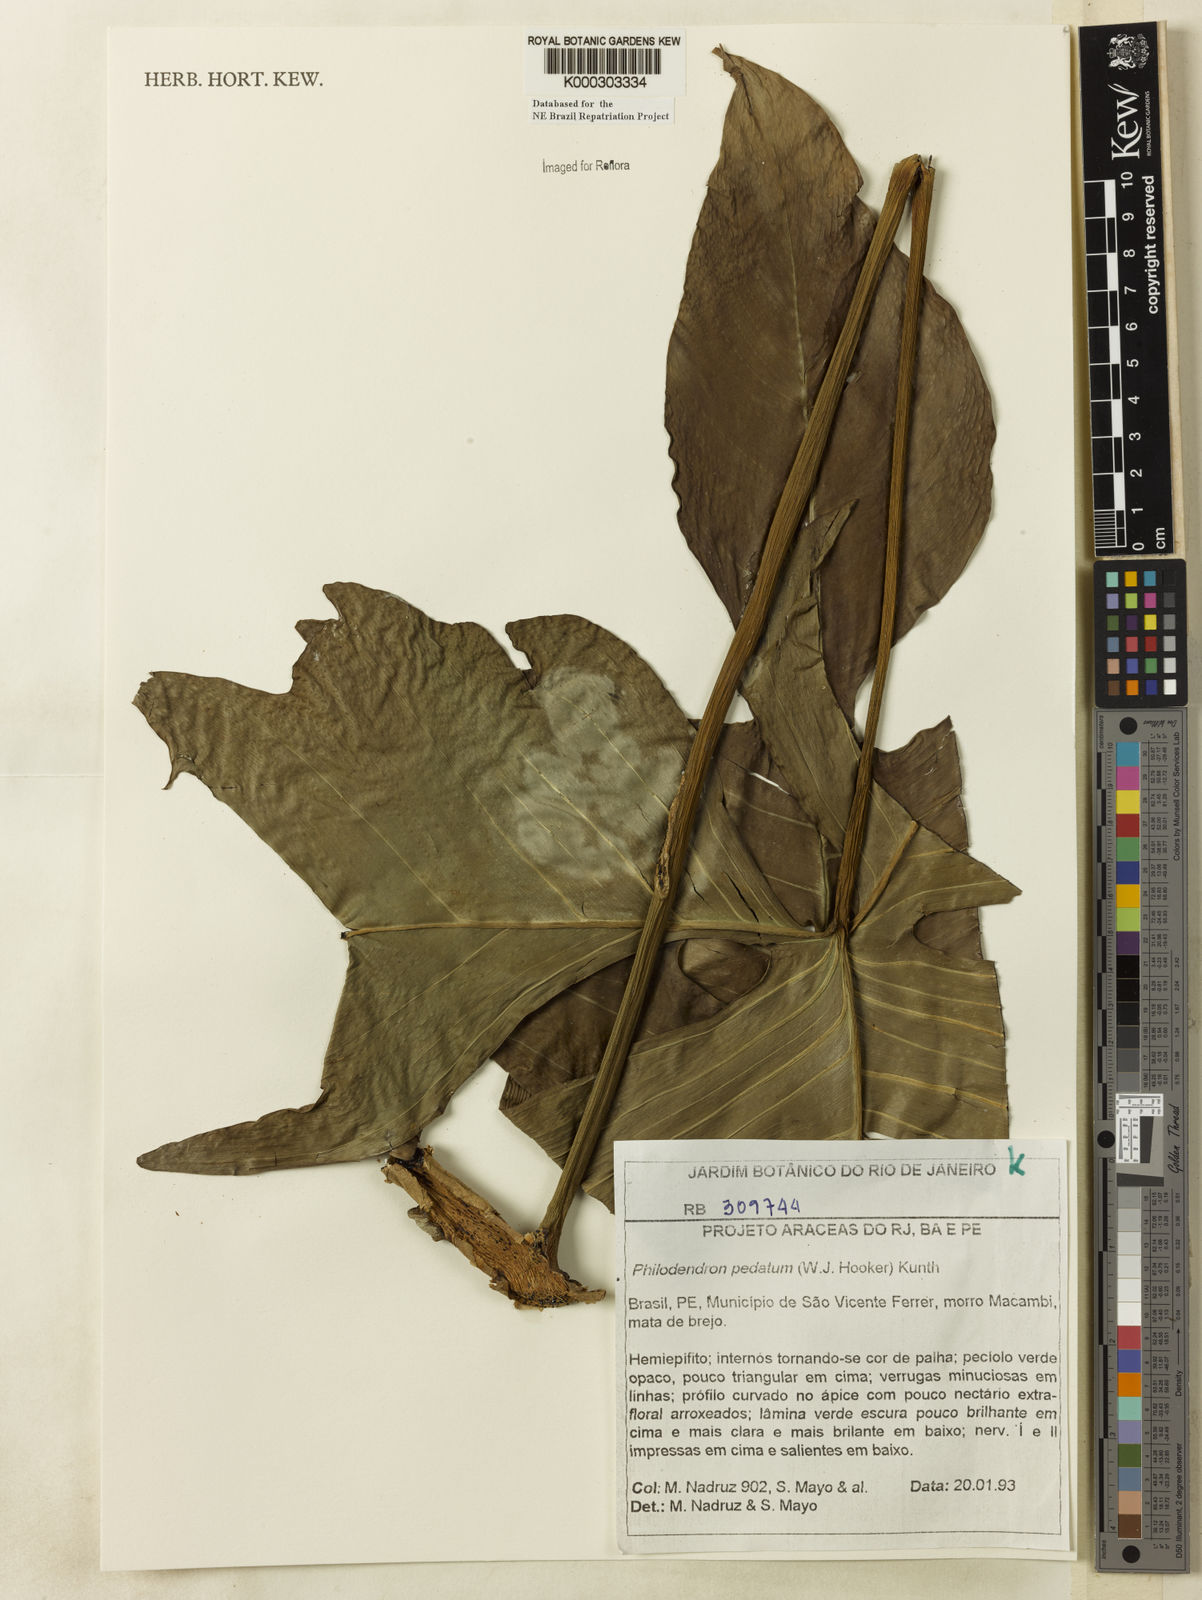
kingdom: Plantae
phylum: Tracheophyta
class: Liliopsida
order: Alismatales
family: Araceae
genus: Philodendron
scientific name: Philodendron pedatum
